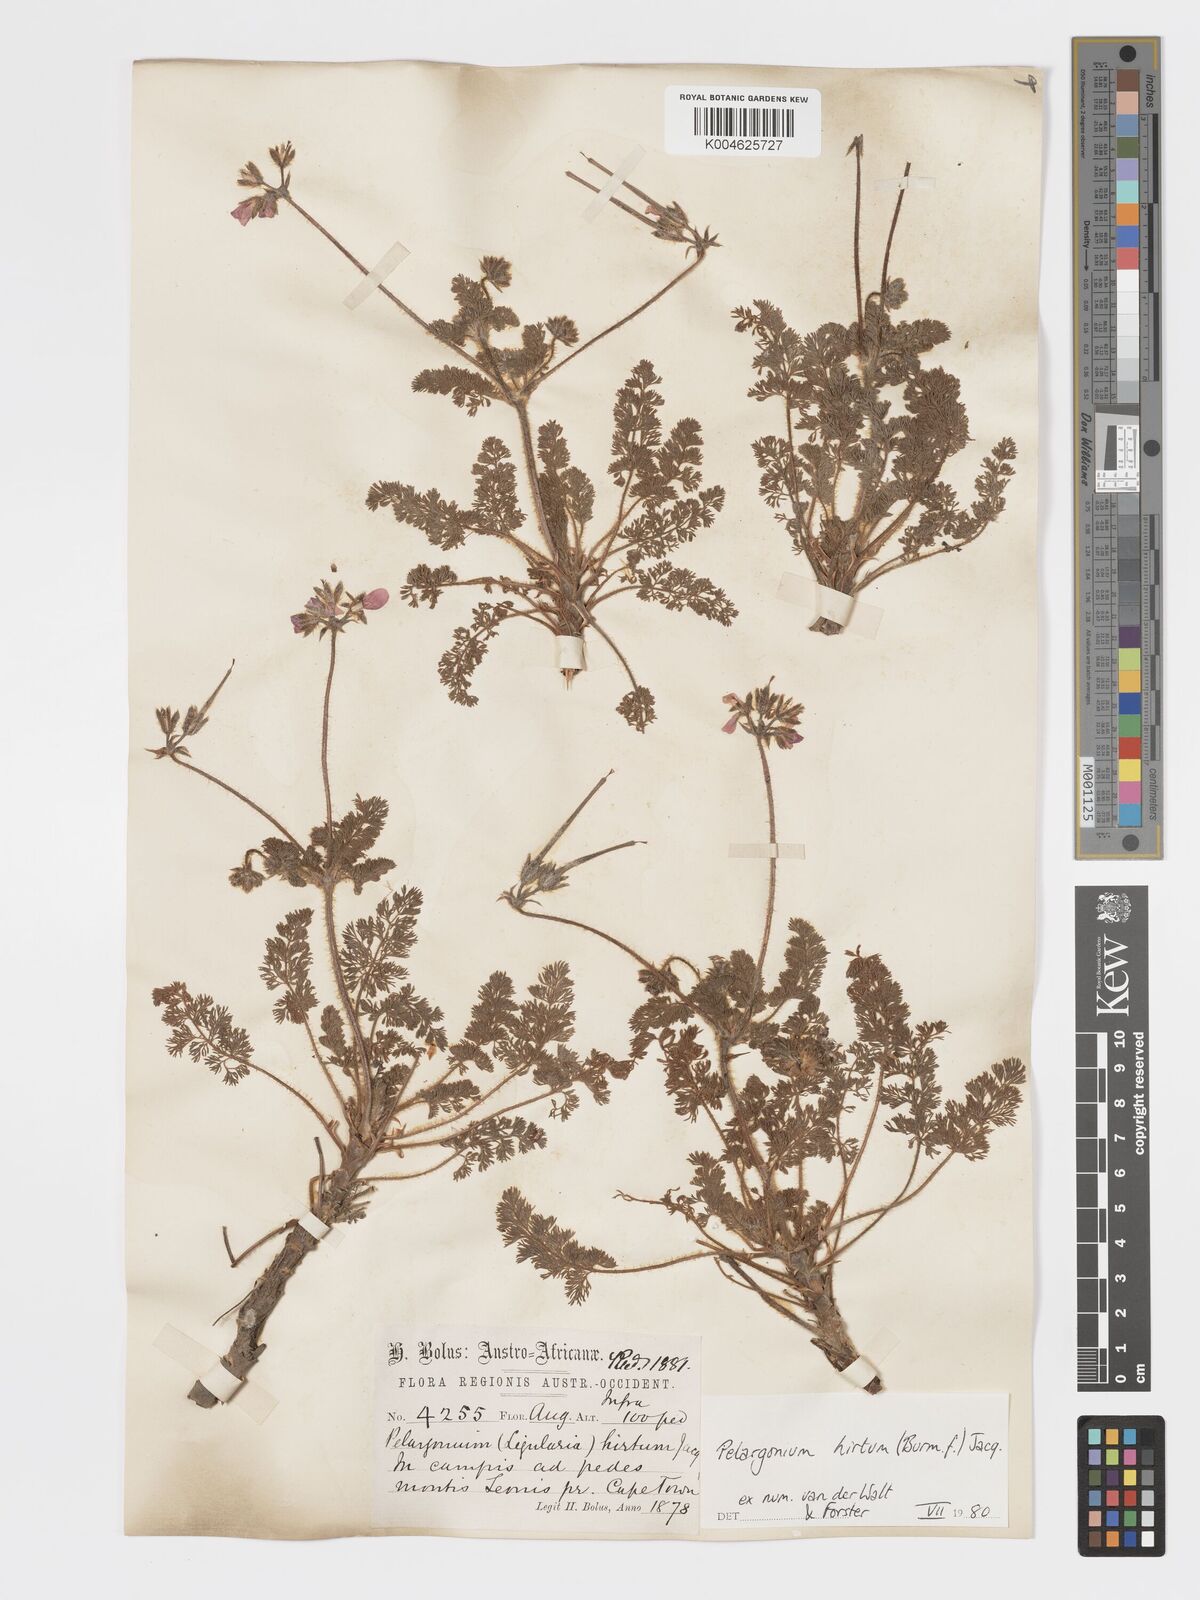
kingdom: Plantae
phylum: Tracheophyta
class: Magnoliopsida
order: Geraniales
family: Geraniaceae
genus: Pelargonium
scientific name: Pelargonium
